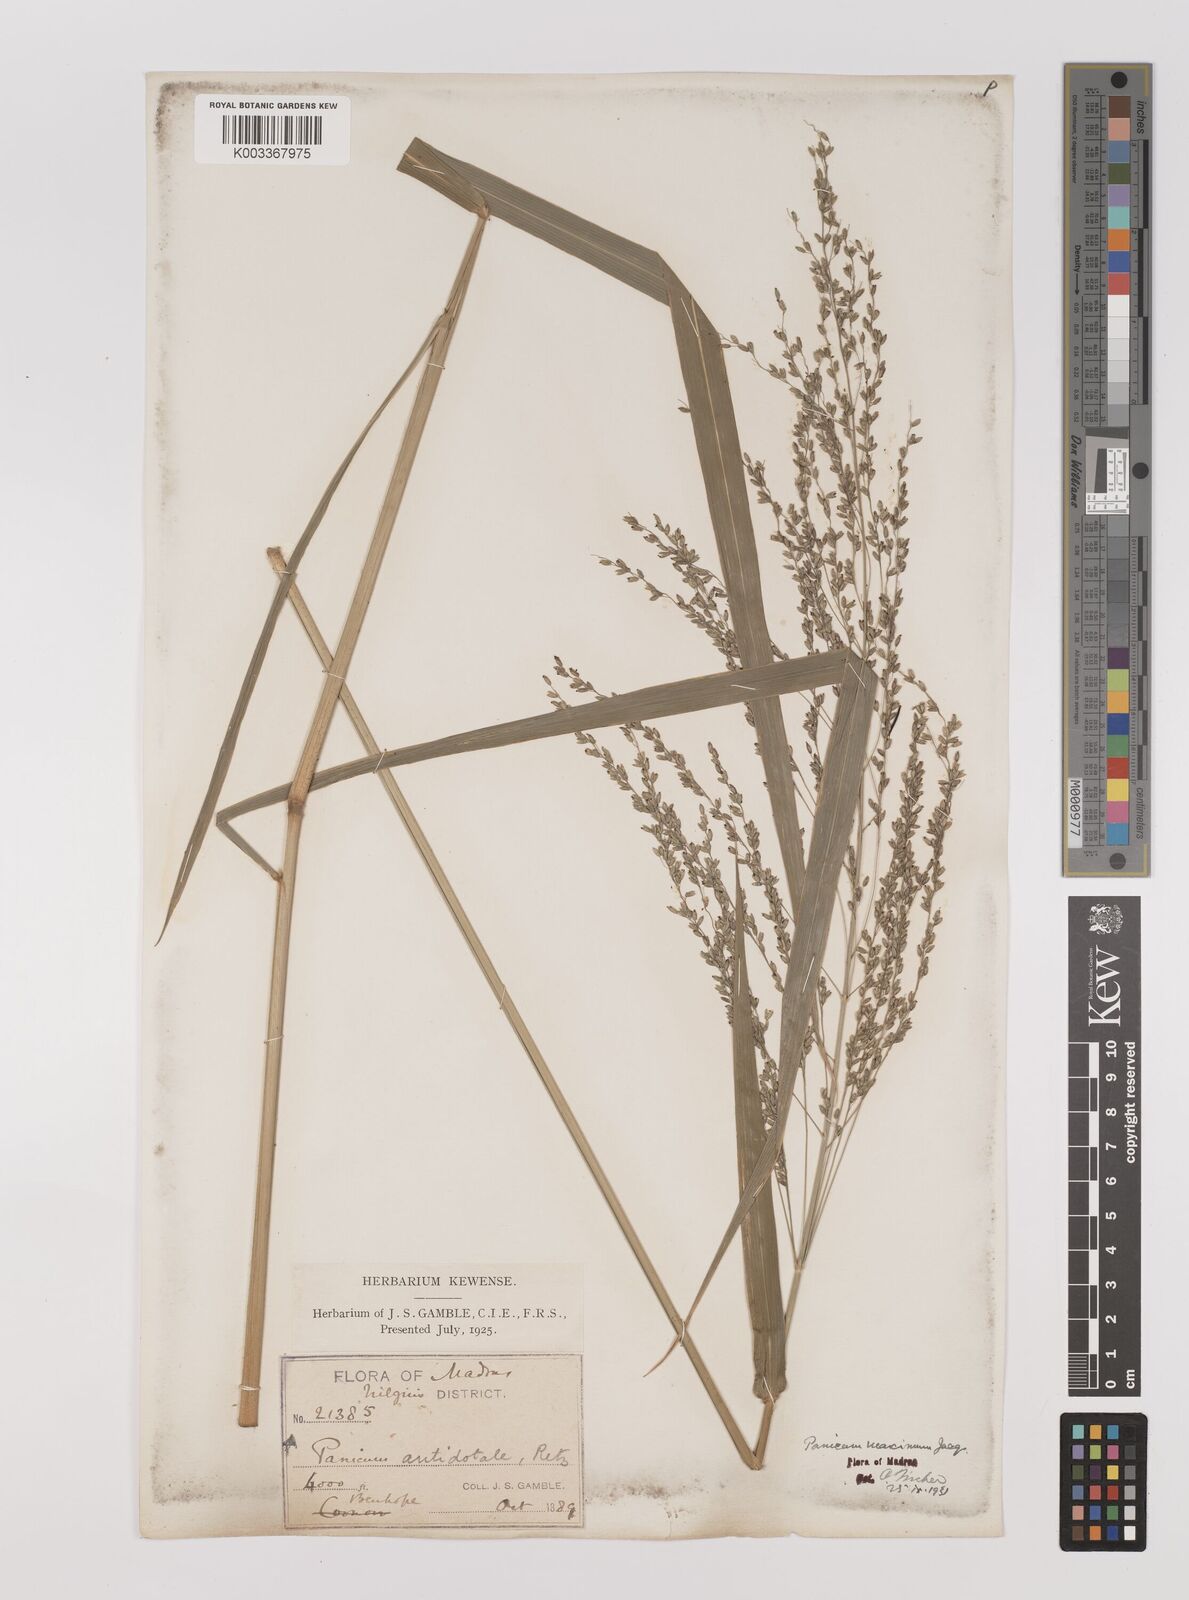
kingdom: Plantae
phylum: Tracheophyta
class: Liliopsida
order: Poales
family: Poaceae
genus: Megathyrsus
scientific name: Megathyrsus maximus
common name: Guineagrass
